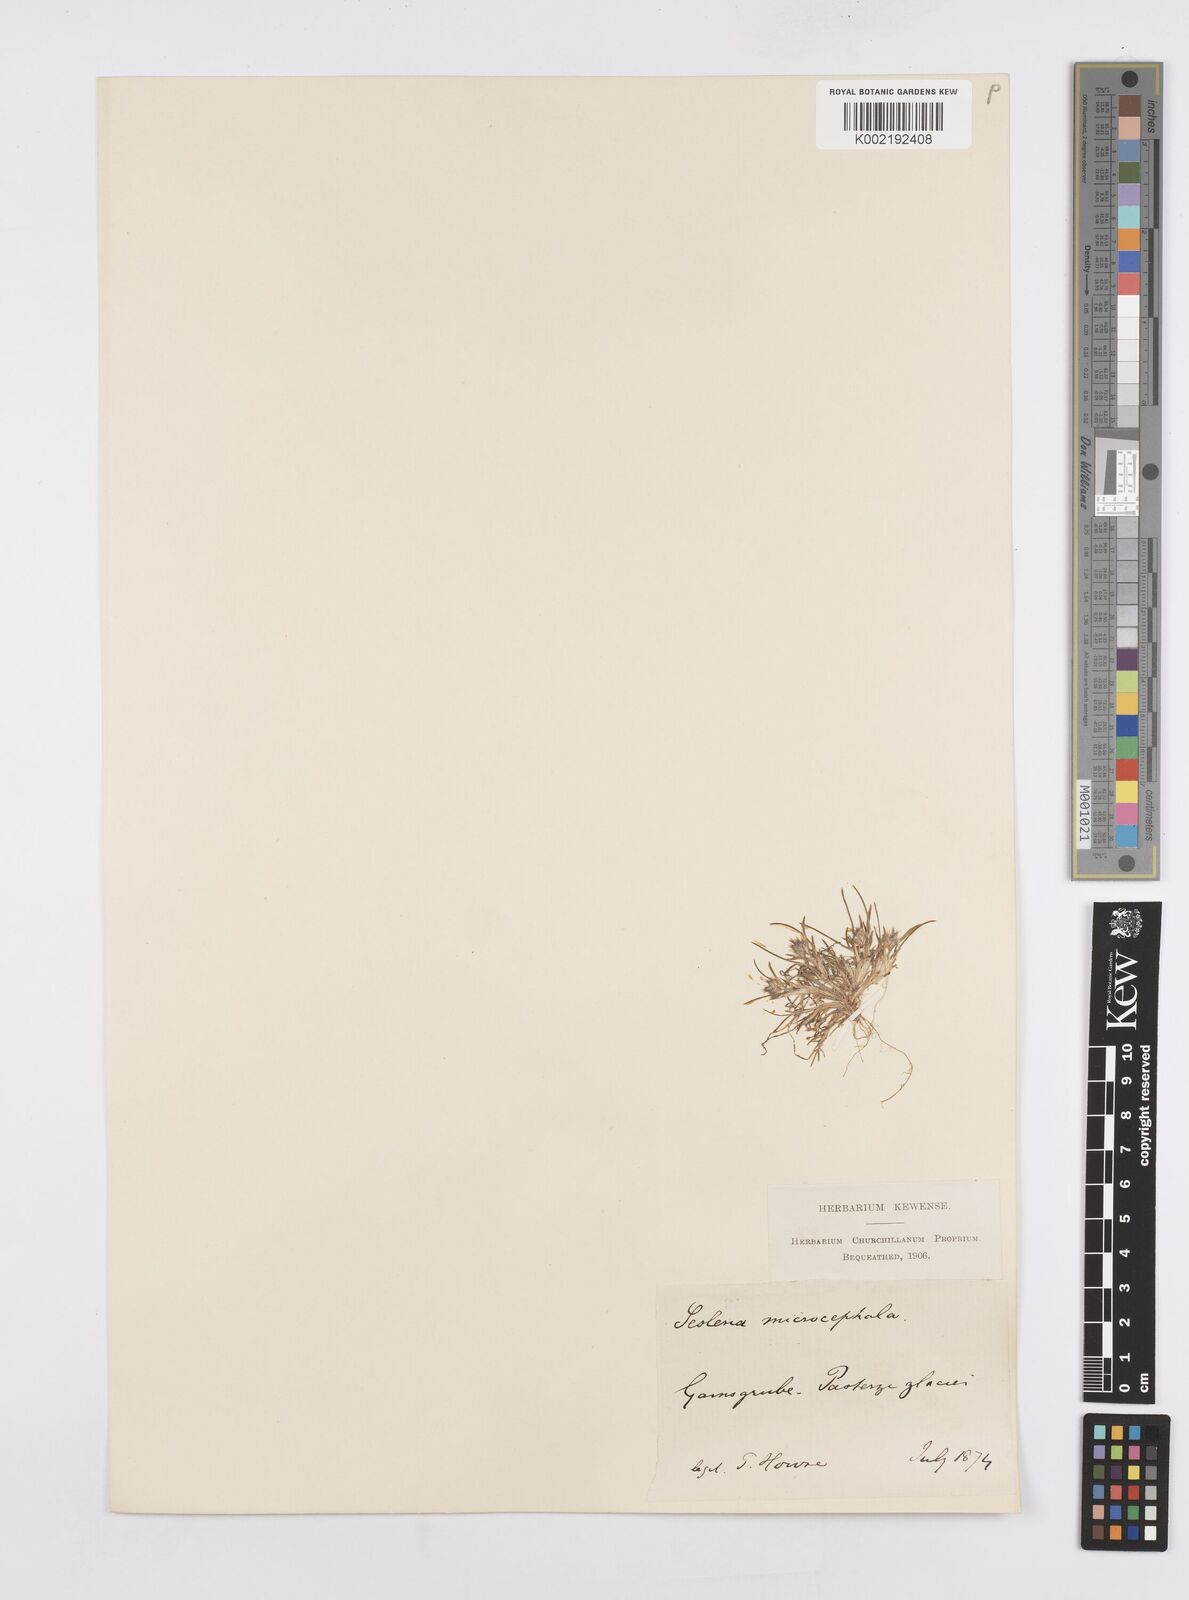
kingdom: Plantae
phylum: Tracheophyta
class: Liliopsida
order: Poales
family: Poaceae
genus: Psilathera
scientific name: Psilathera ovata
